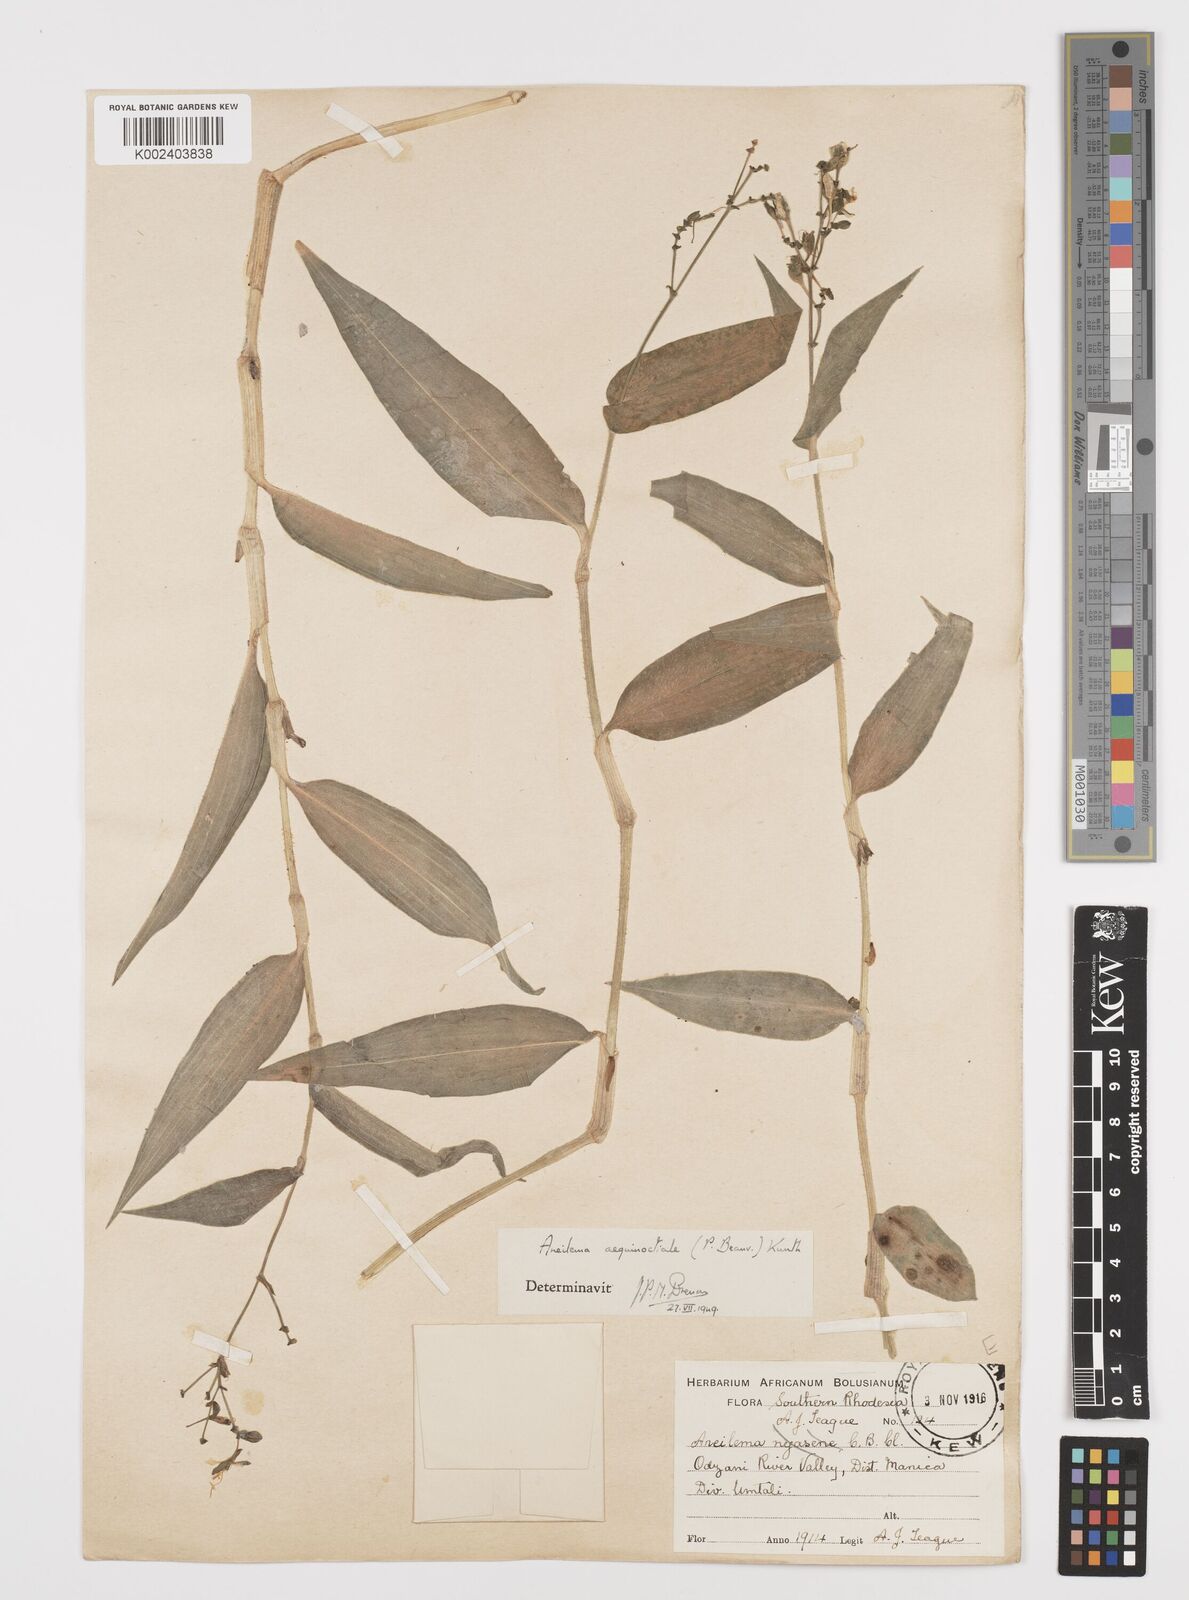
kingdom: Plantae
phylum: Tracheophyta
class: Liliopsida
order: Commelinales
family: Commelinaceae
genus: Aneilema
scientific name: Aneilema aequinoctiale
